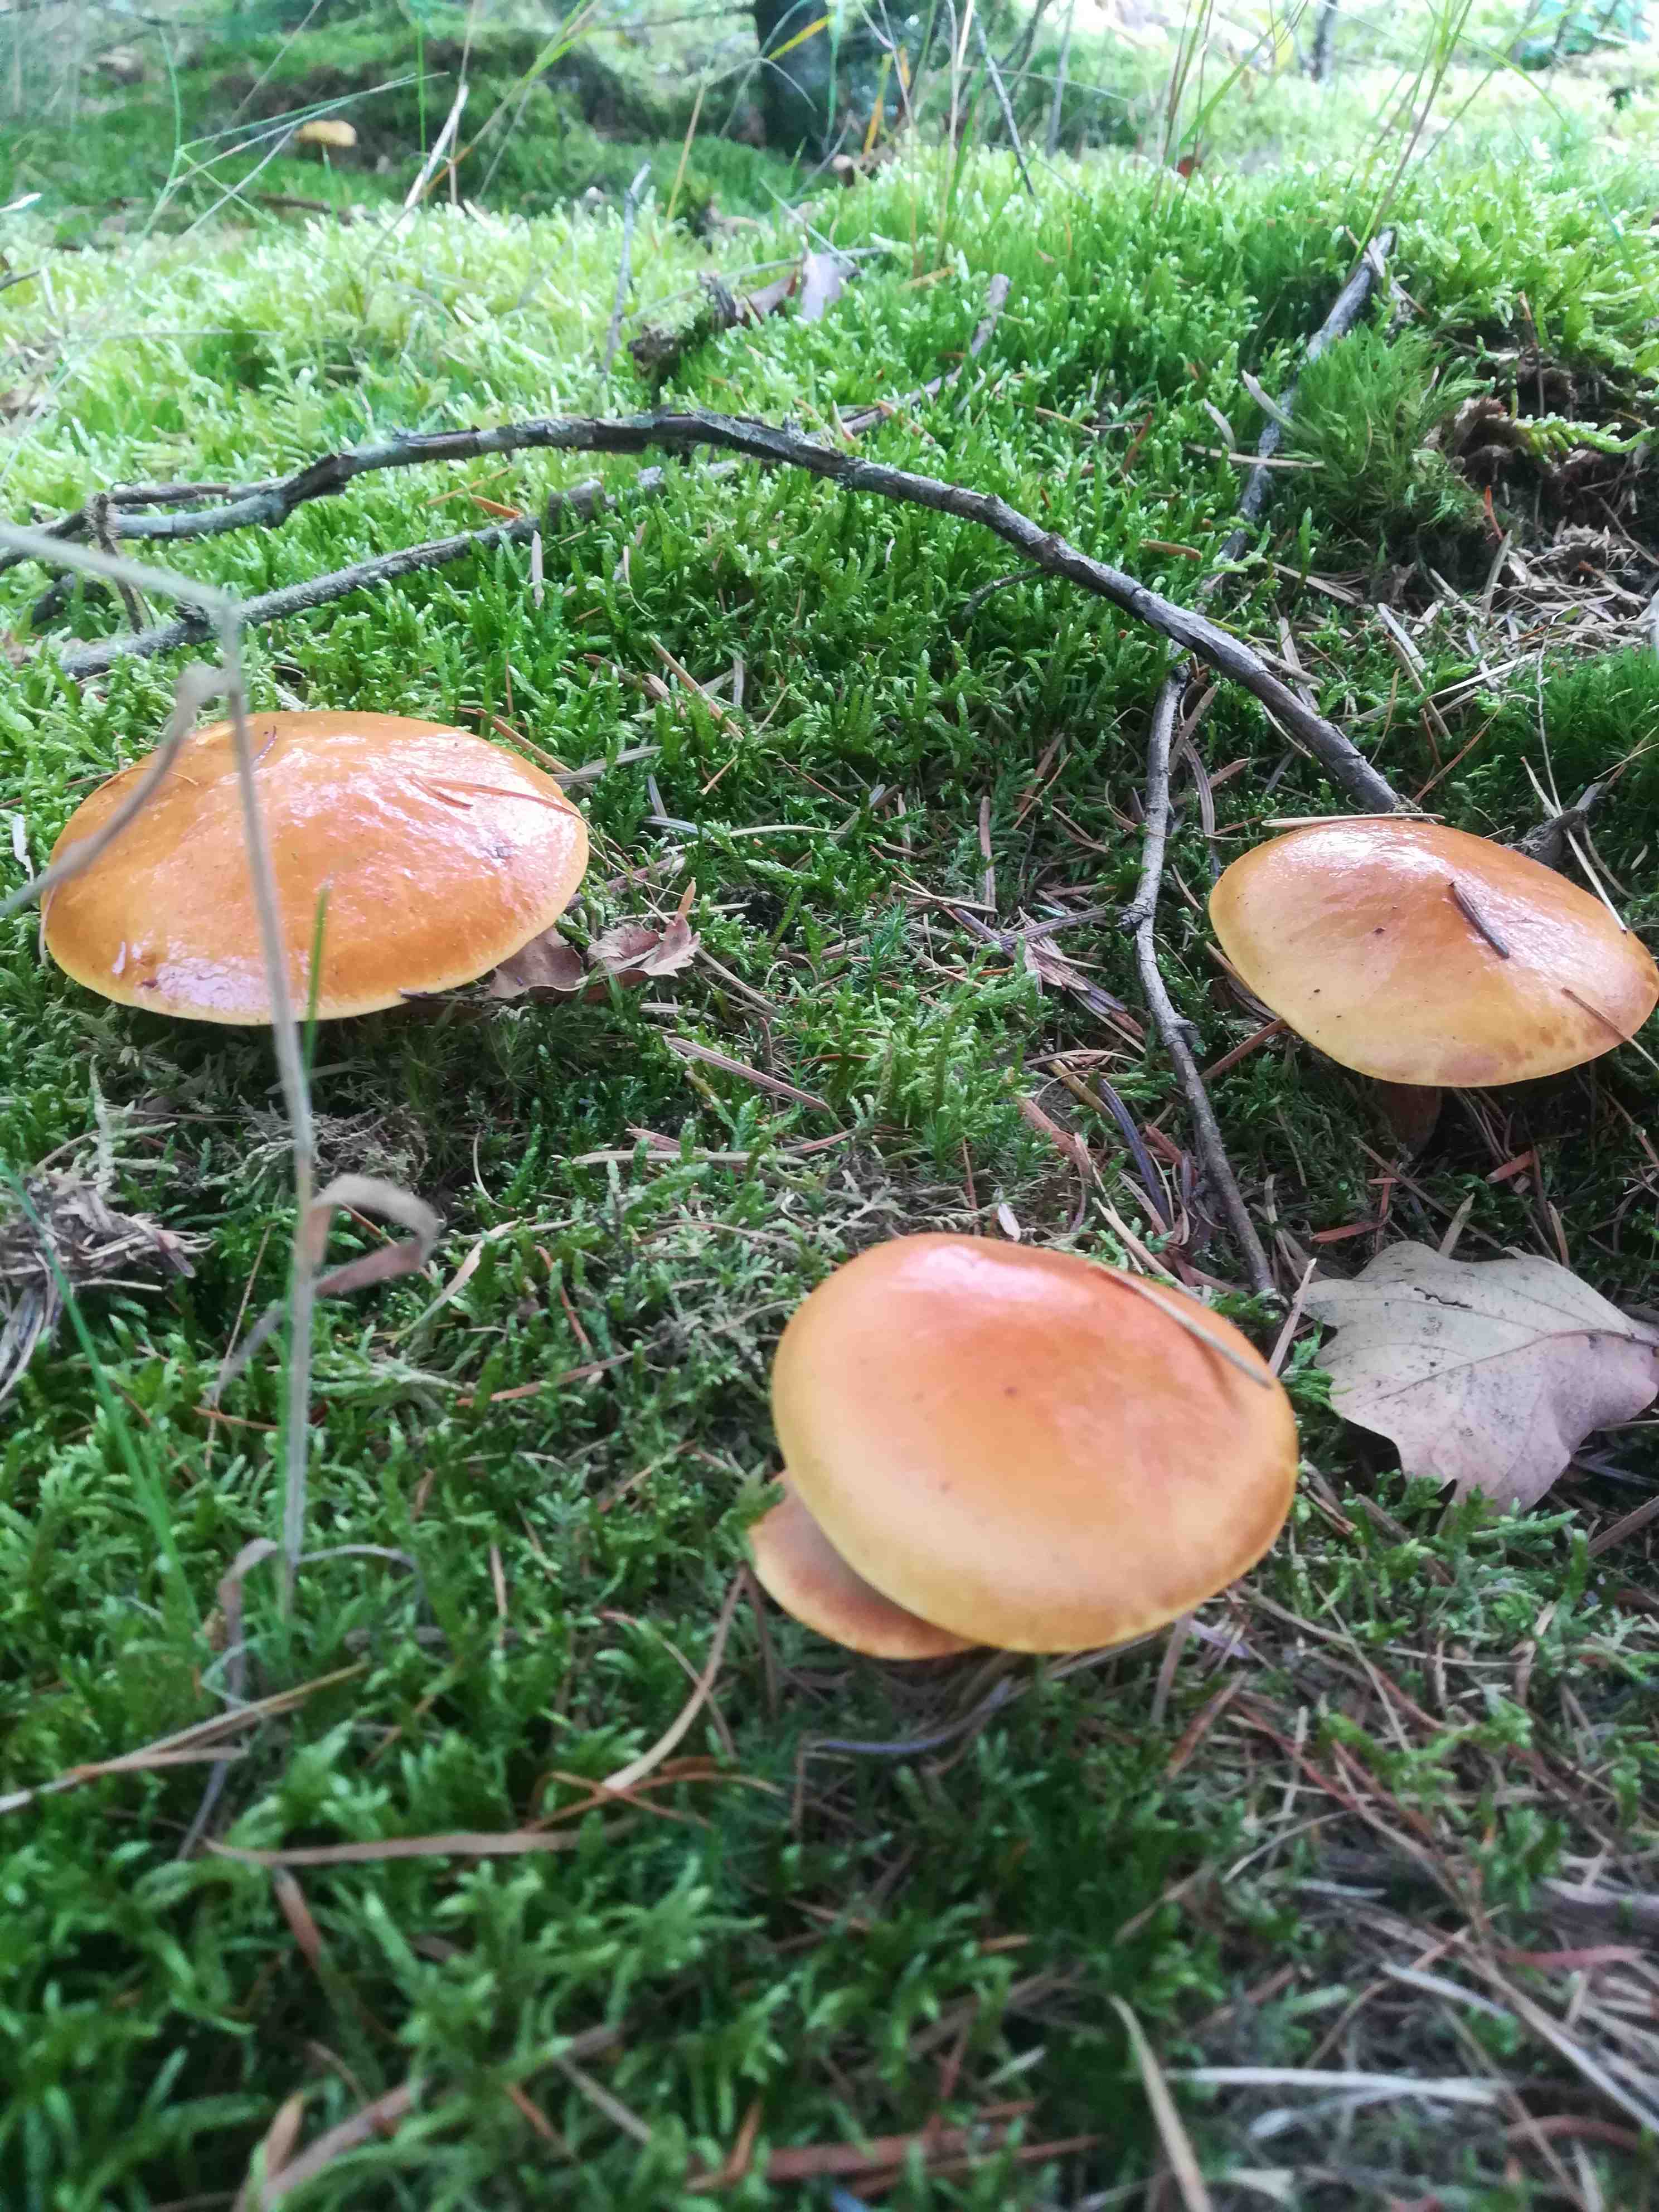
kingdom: Fungi
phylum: Basidiomycota
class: Agaricomycetes
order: Boletales
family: Suillaceae
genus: Suillus
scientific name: Suillus grevillei
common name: lærke-slimrørhat
